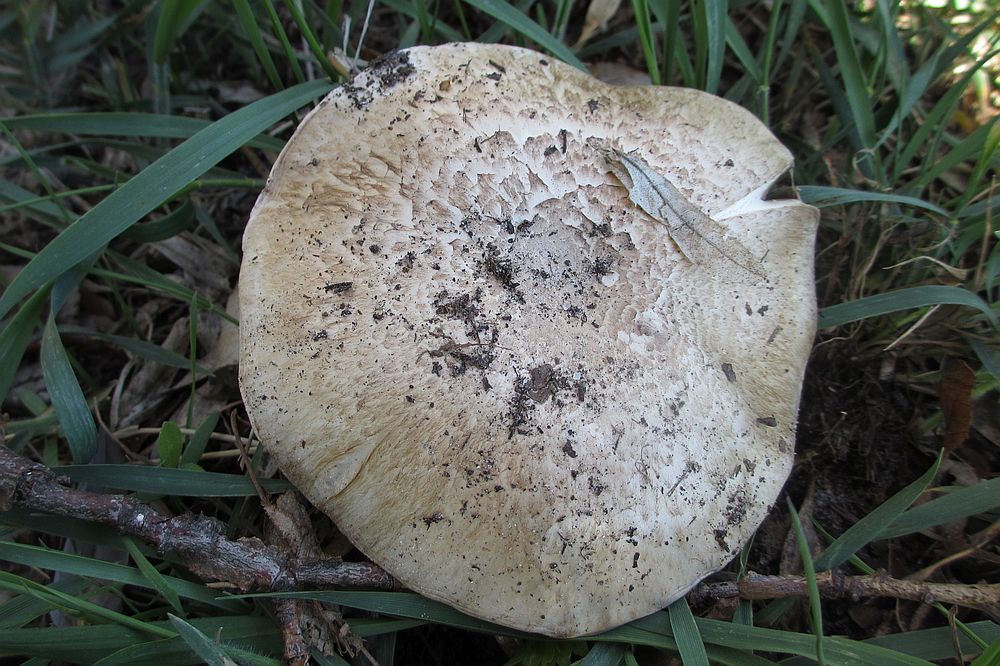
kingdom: Fungi
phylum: Basidiomycota
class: Agaricomycetes
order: Agaricales
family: Agaricaceae
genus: Agaricus
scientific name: Agaricus
